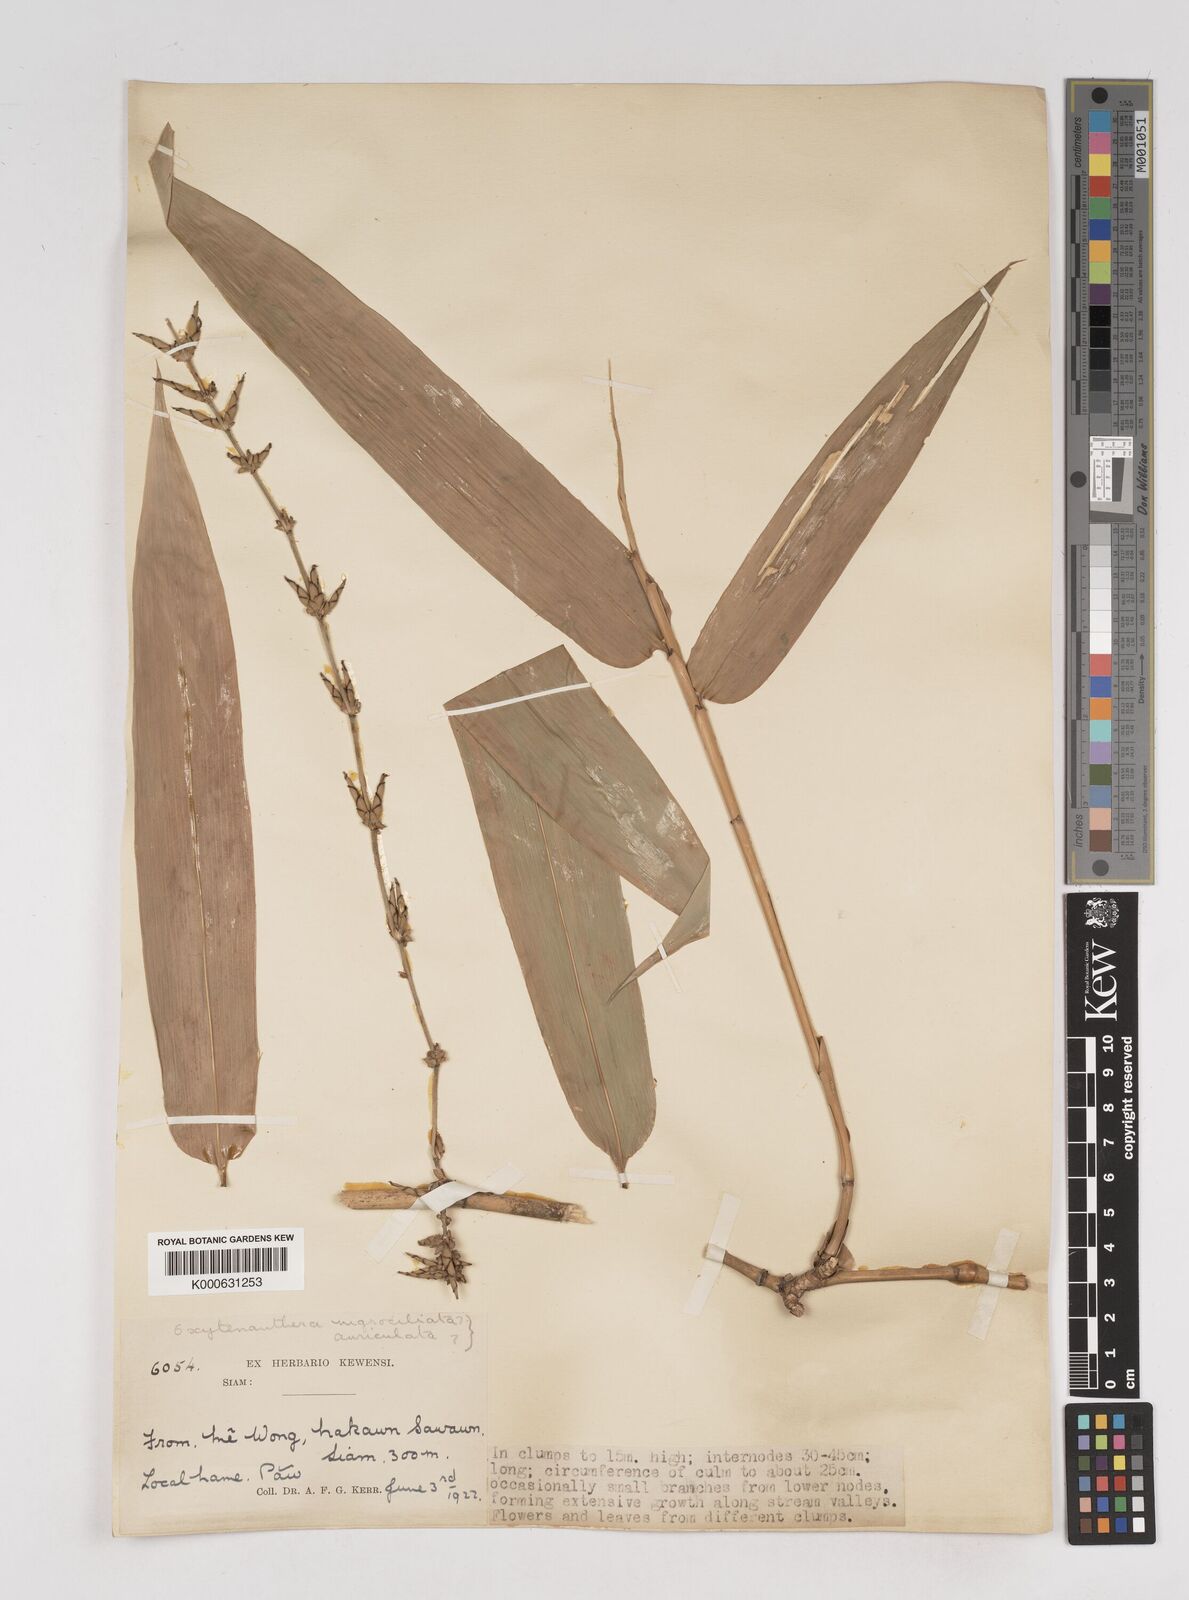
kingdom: Plantae
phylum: Tracheophyta
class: Liliopsida
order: Poales
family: Poaceae
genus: Gigantochloa
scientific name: Gigantochloa
